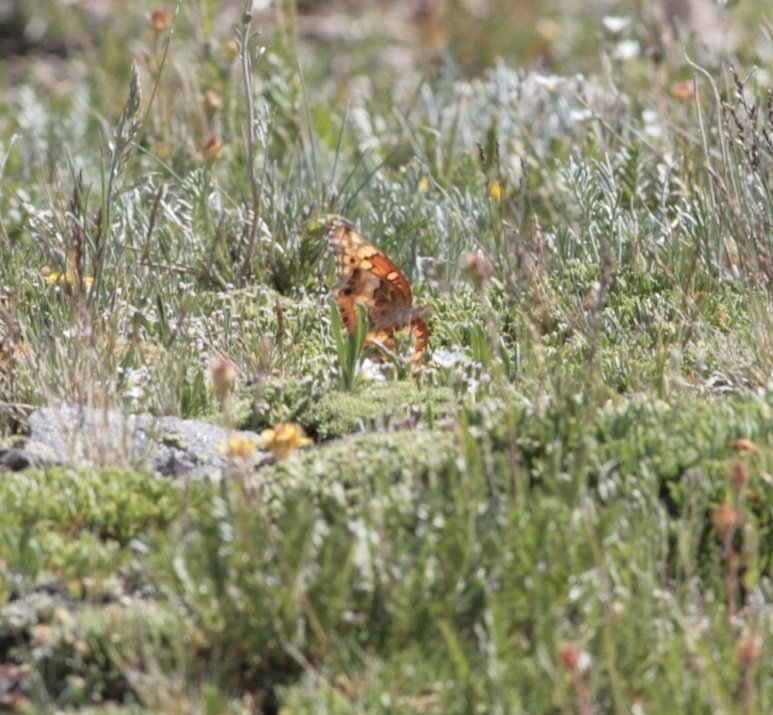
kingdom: Animalia
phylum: Arthropoda
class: Insecta
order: Lepidoptera
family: Nymphalidae
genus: Euptoieta
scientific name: Euptoieta claudia
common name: Variegated Fritillary
